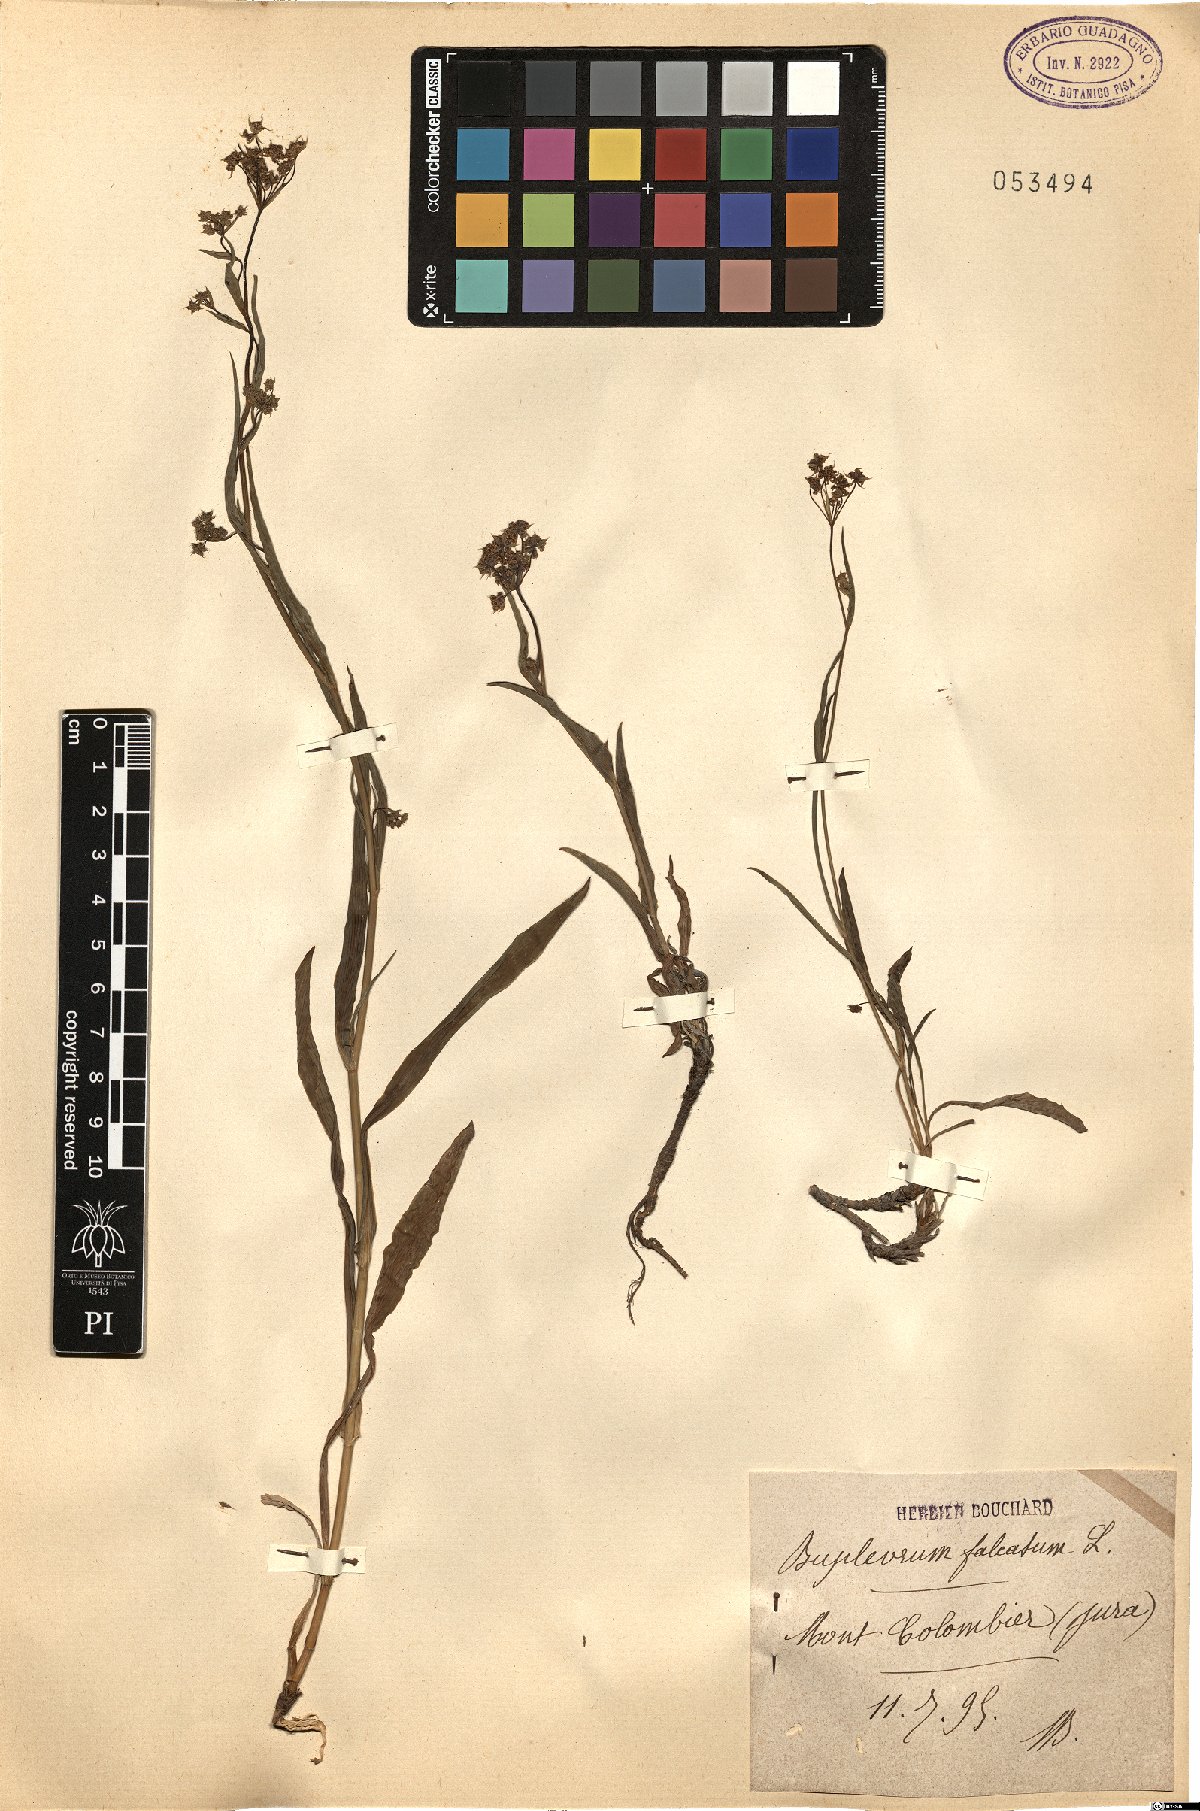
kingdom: Plantae
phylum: Tracheophyta
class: Magnoliopsida
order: Apiales
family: Apiaceae
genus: Bupleurum
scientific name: Bupleurum falcatum
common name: Sickle-leaved hare's-ear
